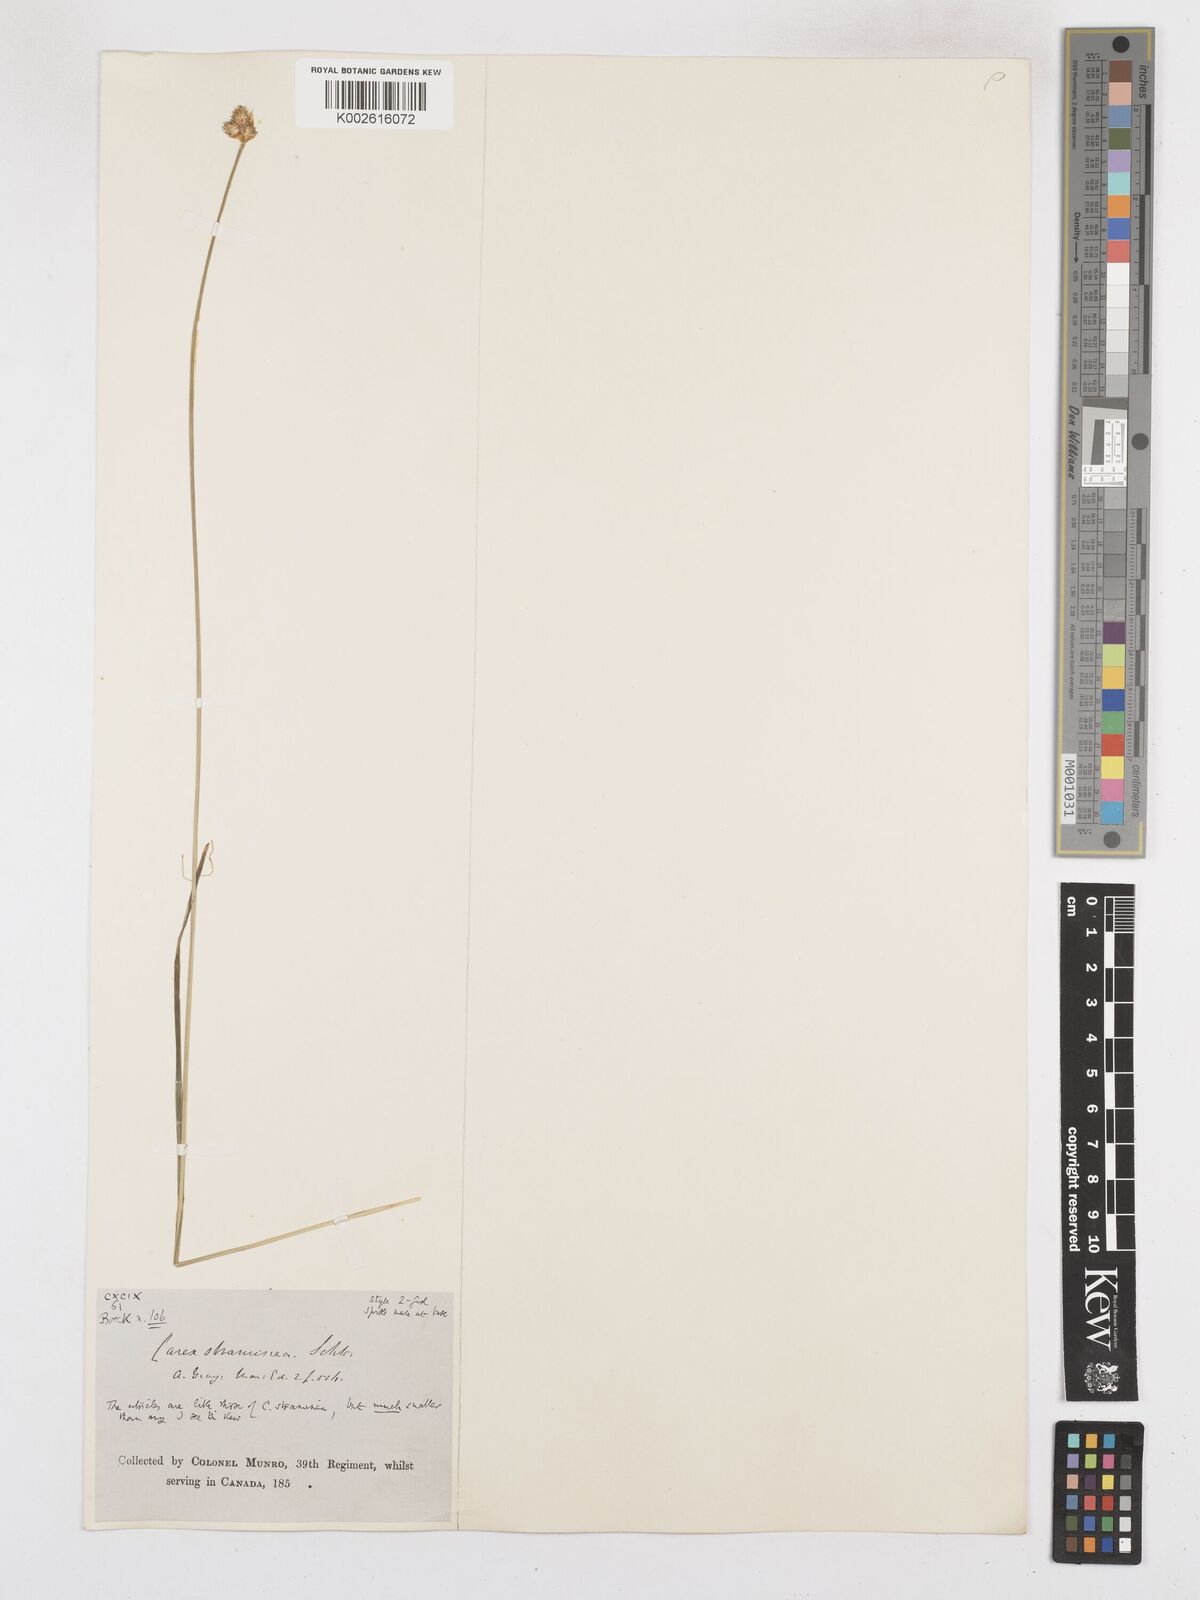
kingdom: Plantae
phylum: Tracheophyta
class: Liliopsida
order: Poales
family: Cyperaceae
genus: Carex
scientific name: Carex brevior
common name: Brevior sedge
